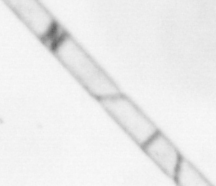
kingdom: Chromista
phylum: Ochrophyta
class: Bacillariophyceae
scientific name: Bacillariophyceae
